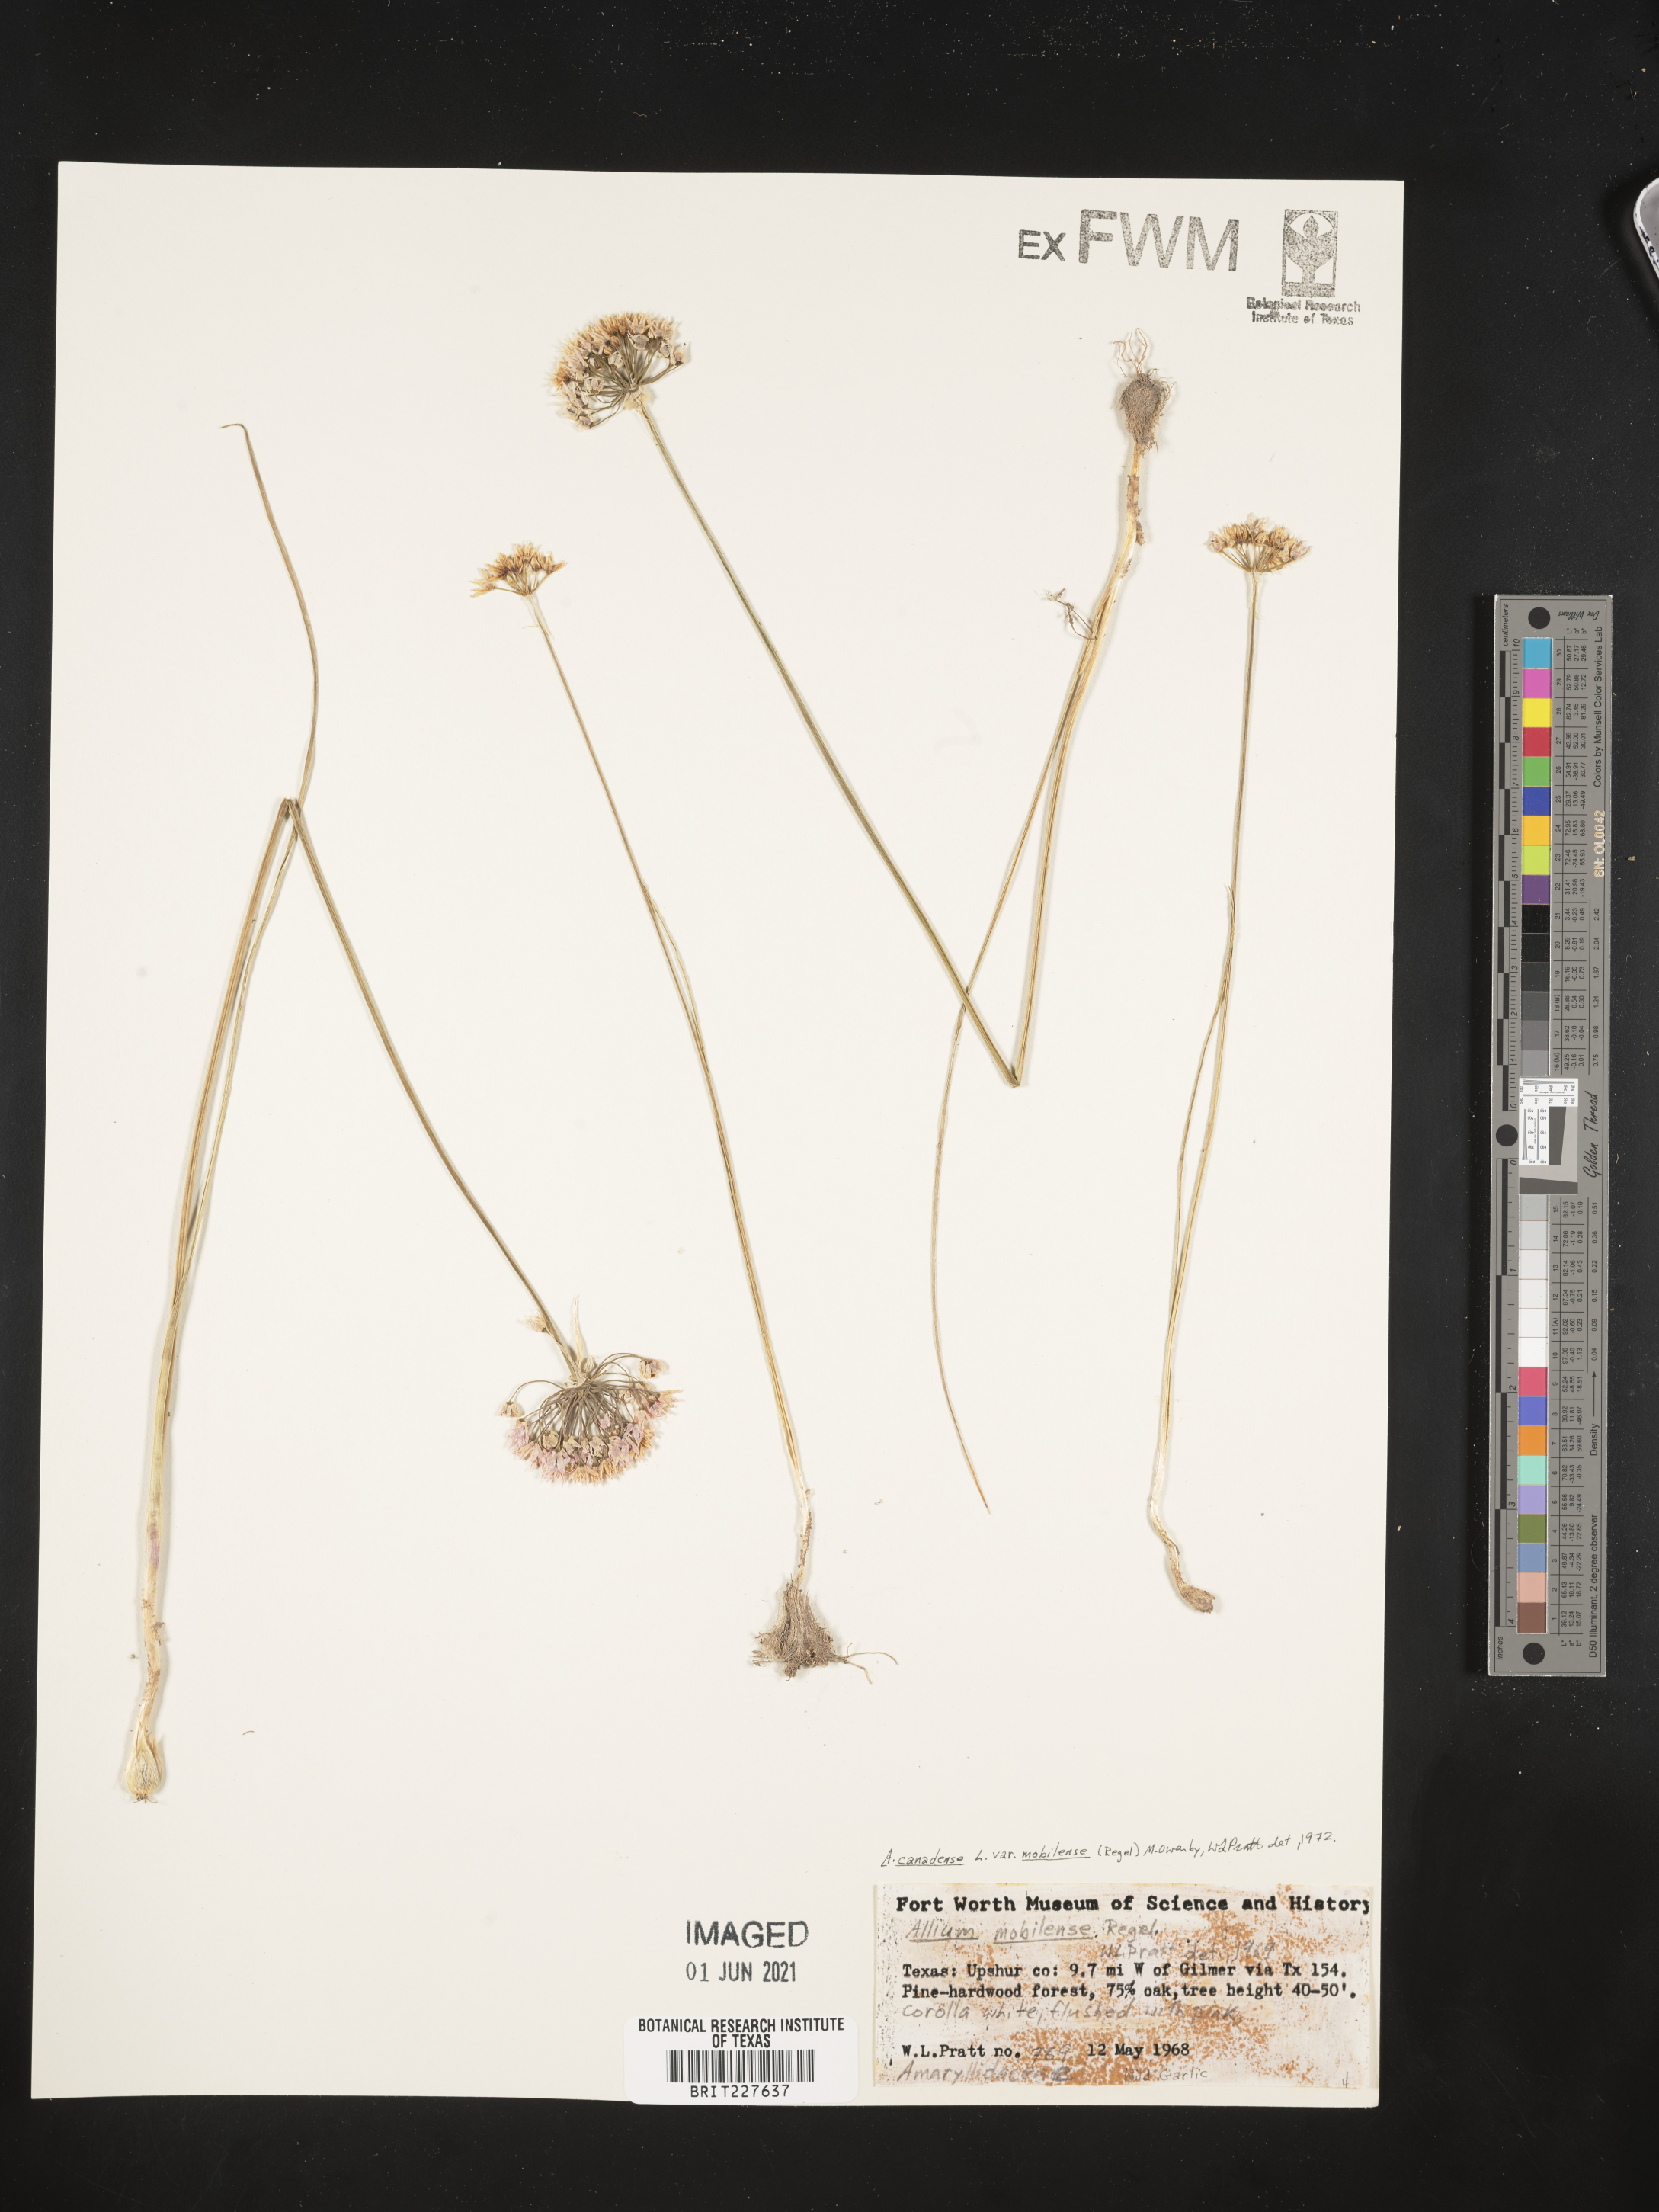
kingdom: Plantae
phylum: Tracheophyta
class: Liliopsida
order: Asparagales
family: Amaryllidaceae
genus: Allium
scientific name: Allium canadense
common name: Meadow garlic
